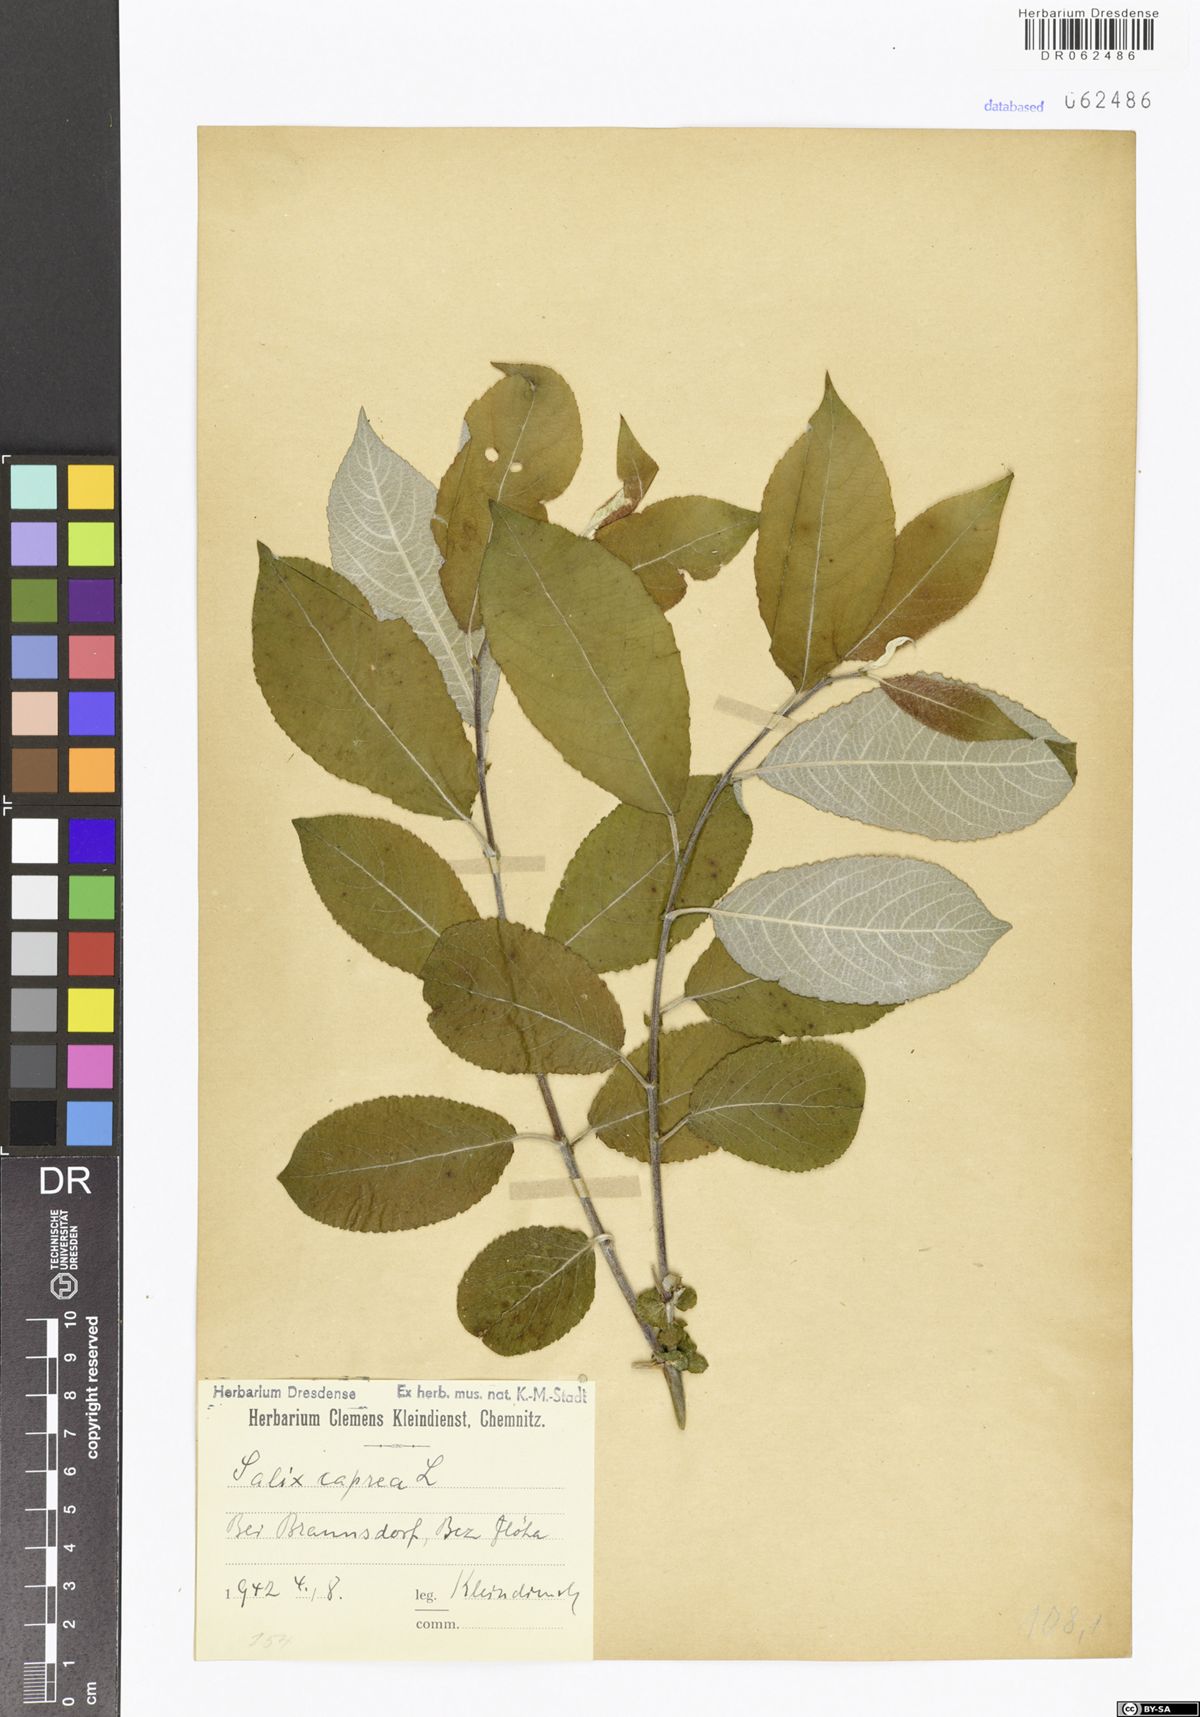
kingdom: Plantae
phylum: Tracheophyta
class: Magnoliopsida
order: Malpighiales
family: Salicaceae
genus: Salix
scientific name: Salix caprea
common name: Goat willow
